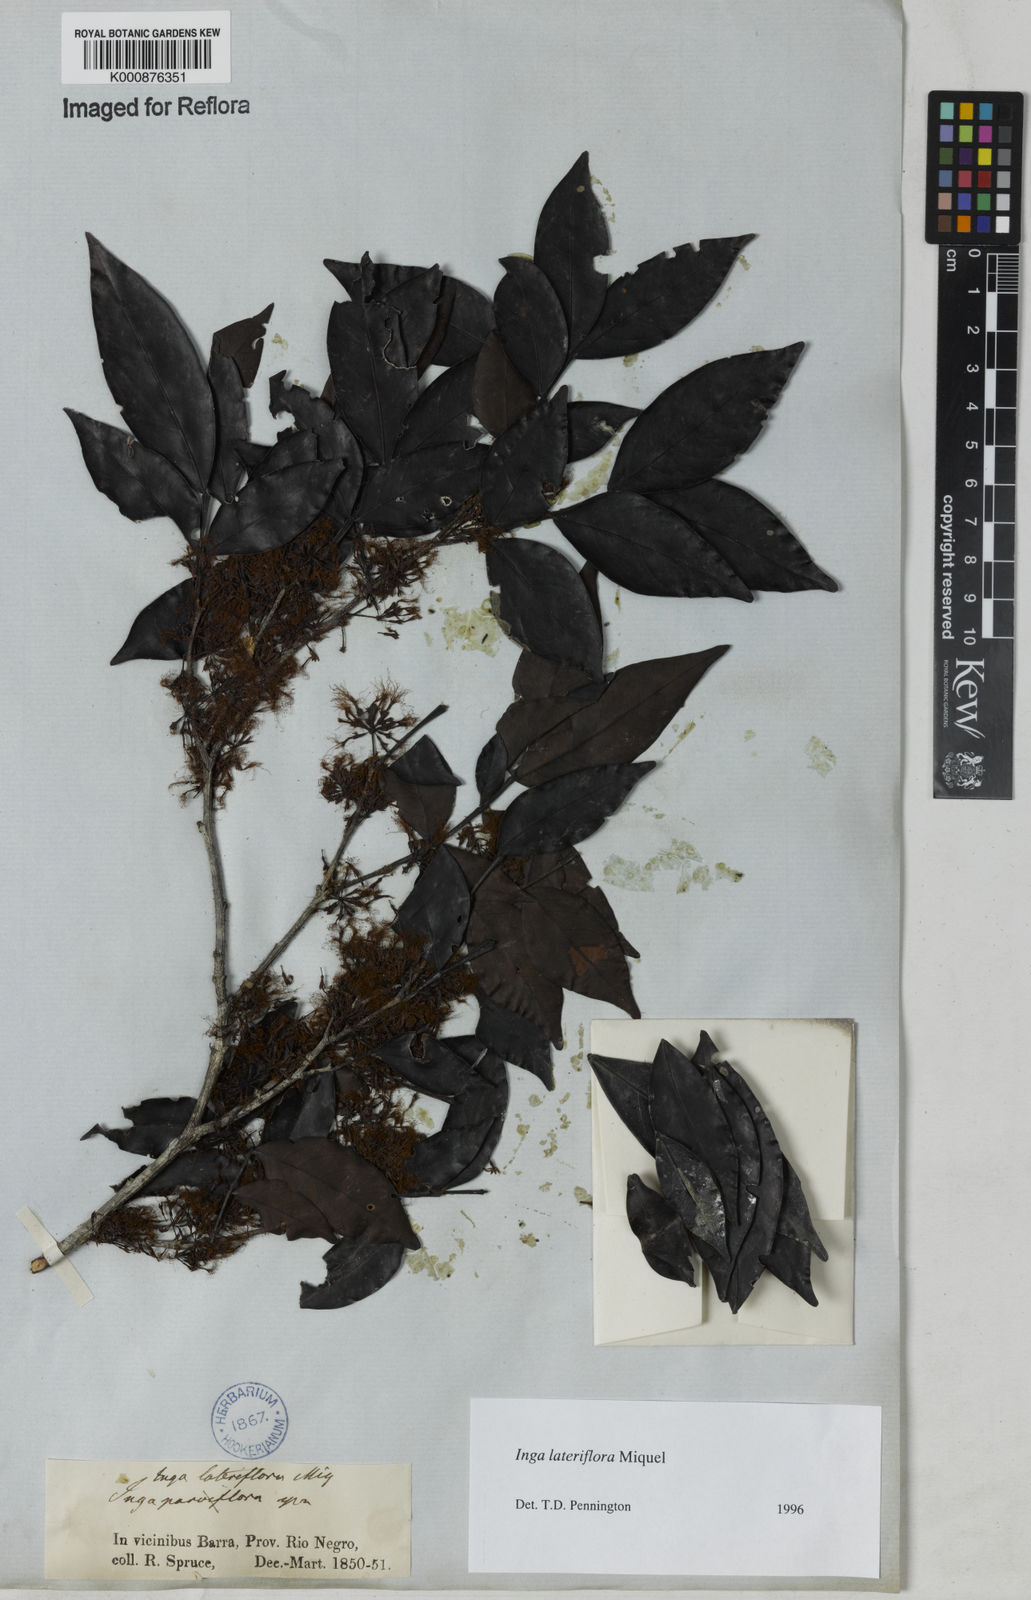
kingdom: Plantae
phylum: Tracheophyta
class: Magnoliopsida
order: Fabales
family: Fabaceae
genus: Inga
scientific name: Inga lateriflora
